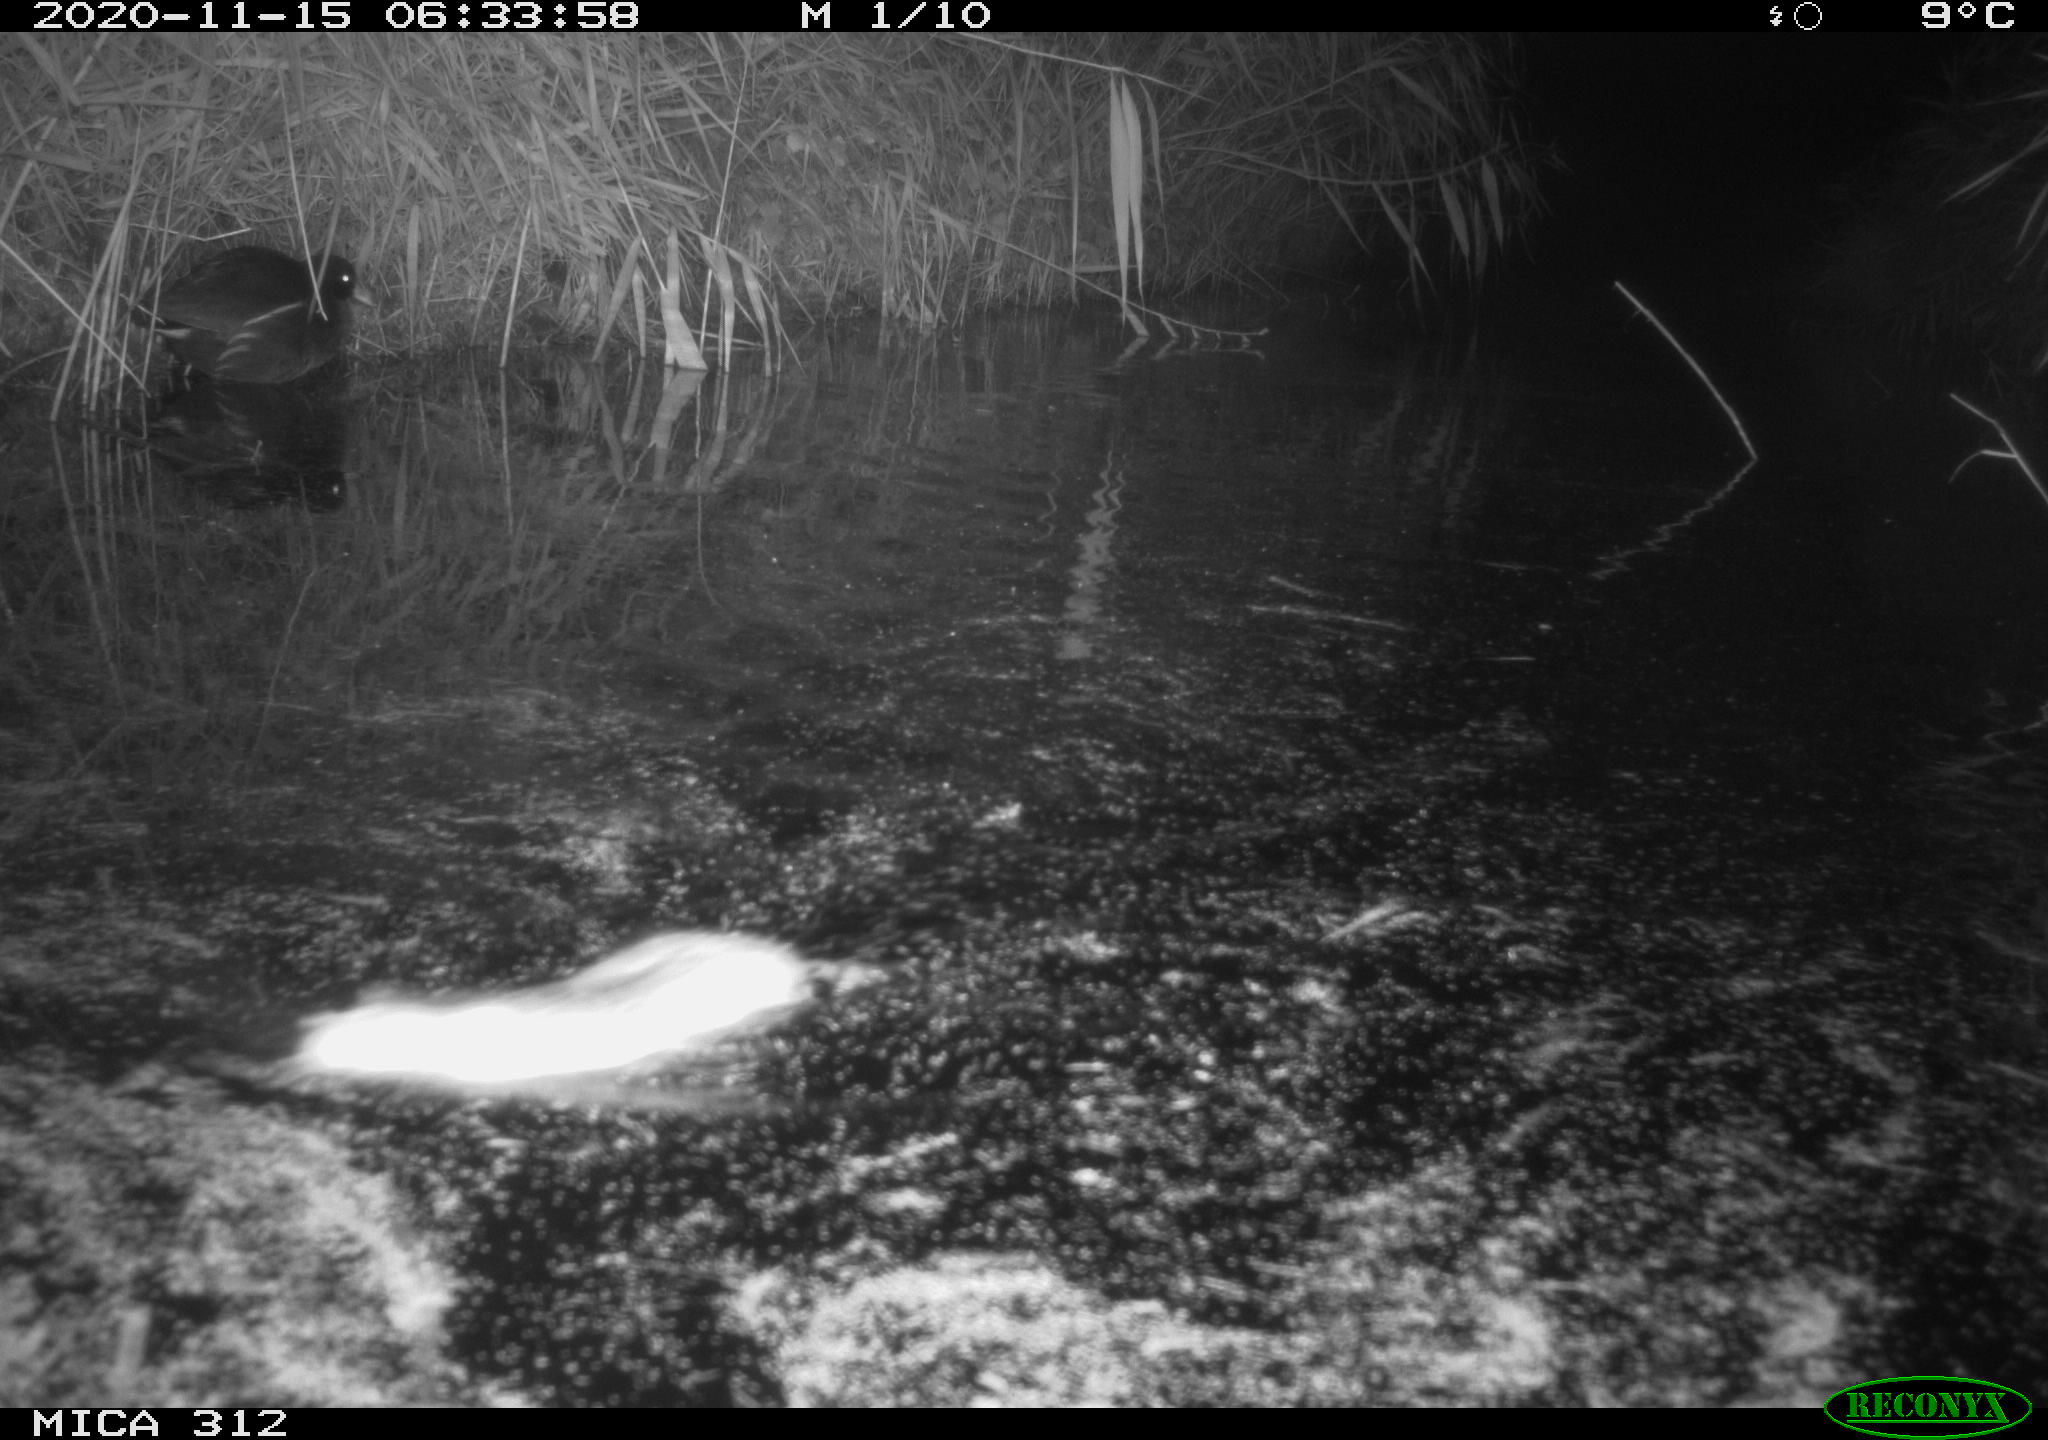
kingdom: Animalia
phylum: Chordata
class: Mammalia
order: Rodentia
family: Muridae
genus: Rattus
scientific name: Rattus norvegicus
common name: Brown rat
